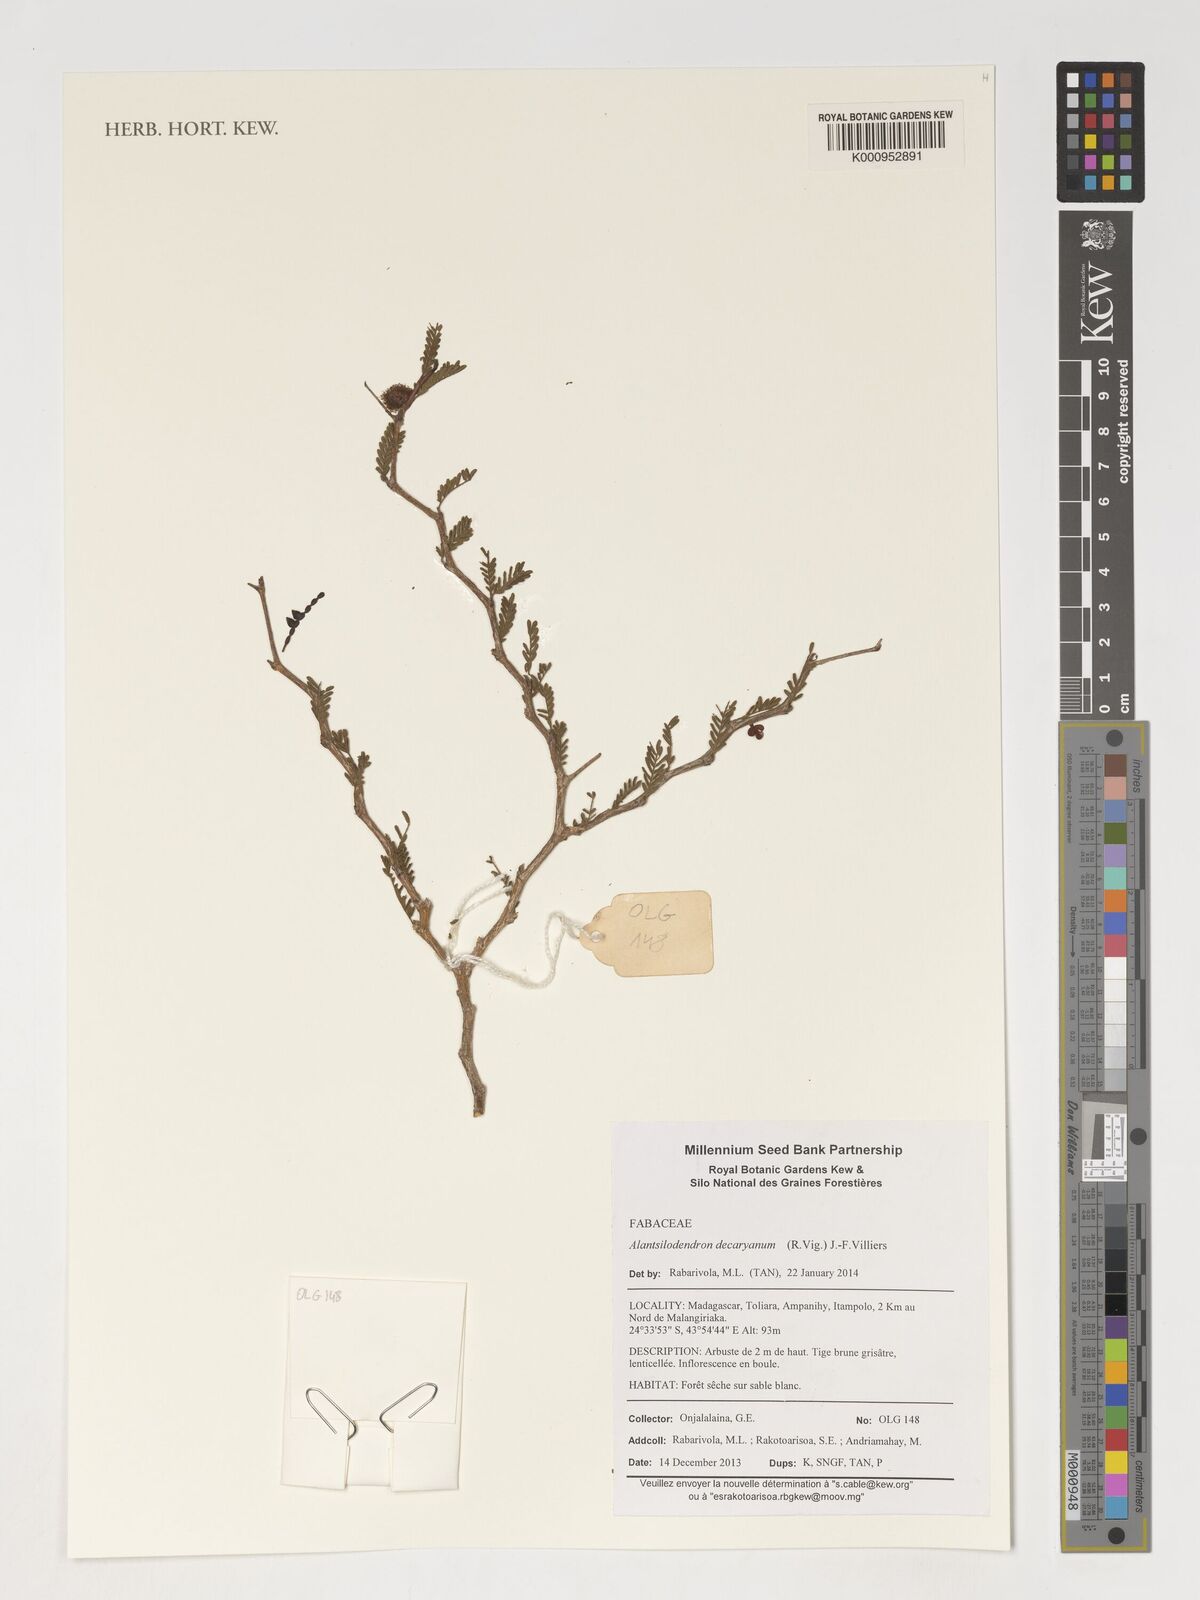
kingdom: Plantae
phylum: Tracheophyta
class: Magnoliopsida
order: Fabales
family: Fabaceae
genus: Alantsilodendron
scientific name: Alantsilodendron decaryanum
